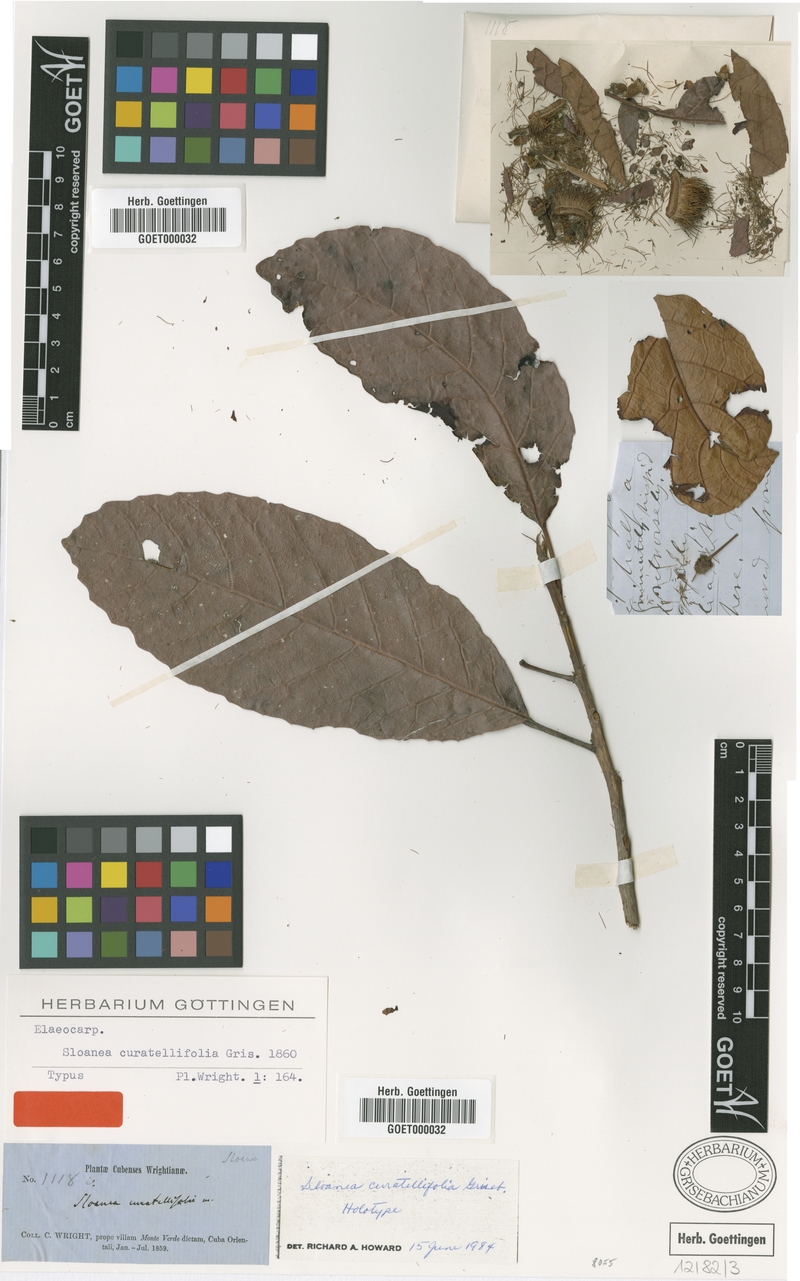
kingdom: Plantae
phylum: Tracheophyta
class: Magnoliopsida
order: Oxalidales
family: Elaeocarpaceae
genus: Sloanea
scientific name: Sloanea curatellifolia
